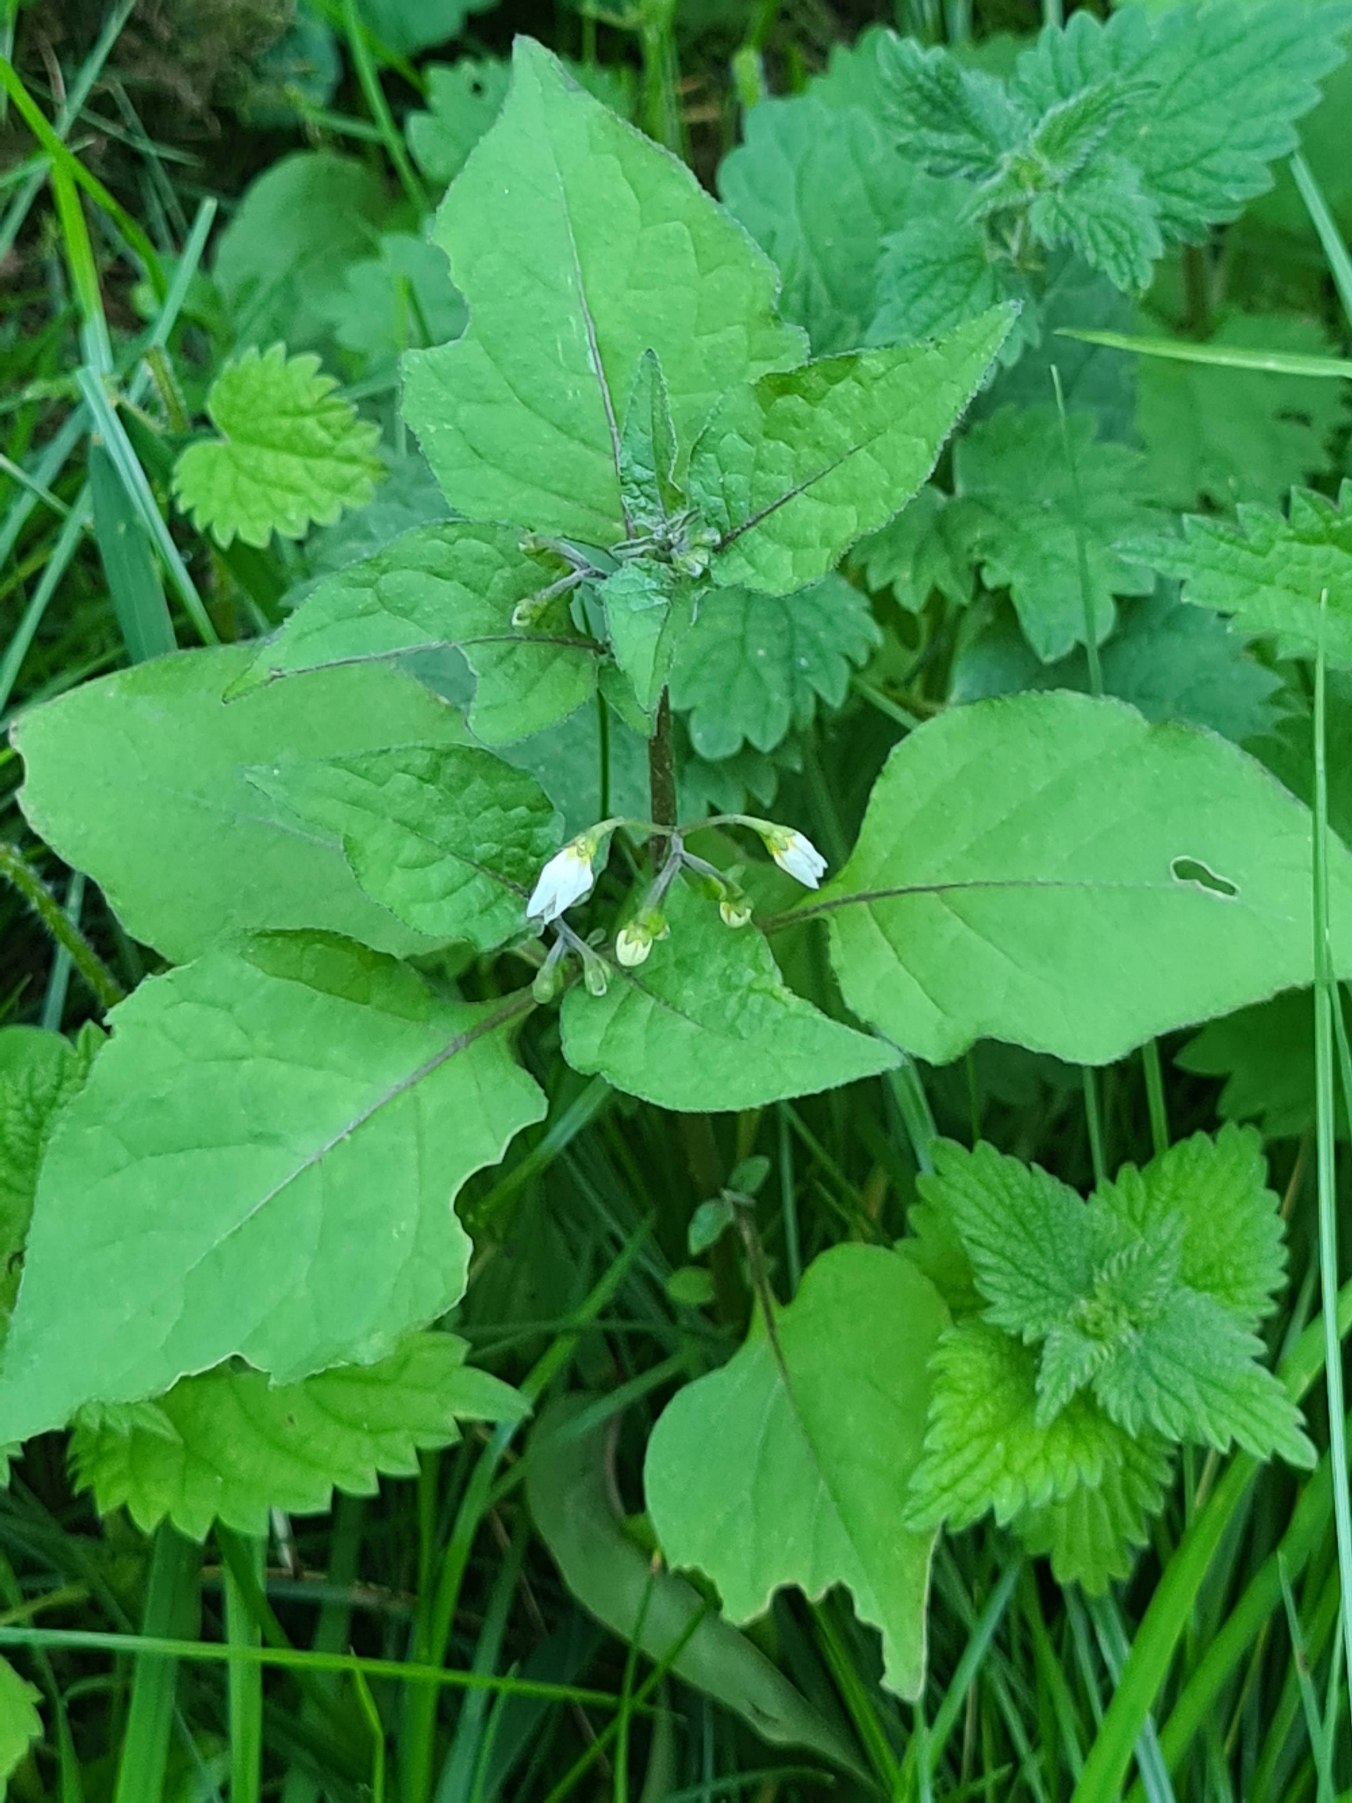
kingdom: Plantae
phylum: Tracheophyta
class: Magnoliopsida
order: Solanales
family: Solanaceae
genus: Solanum
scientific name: Solanum nigrum
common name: Sort natskygge
